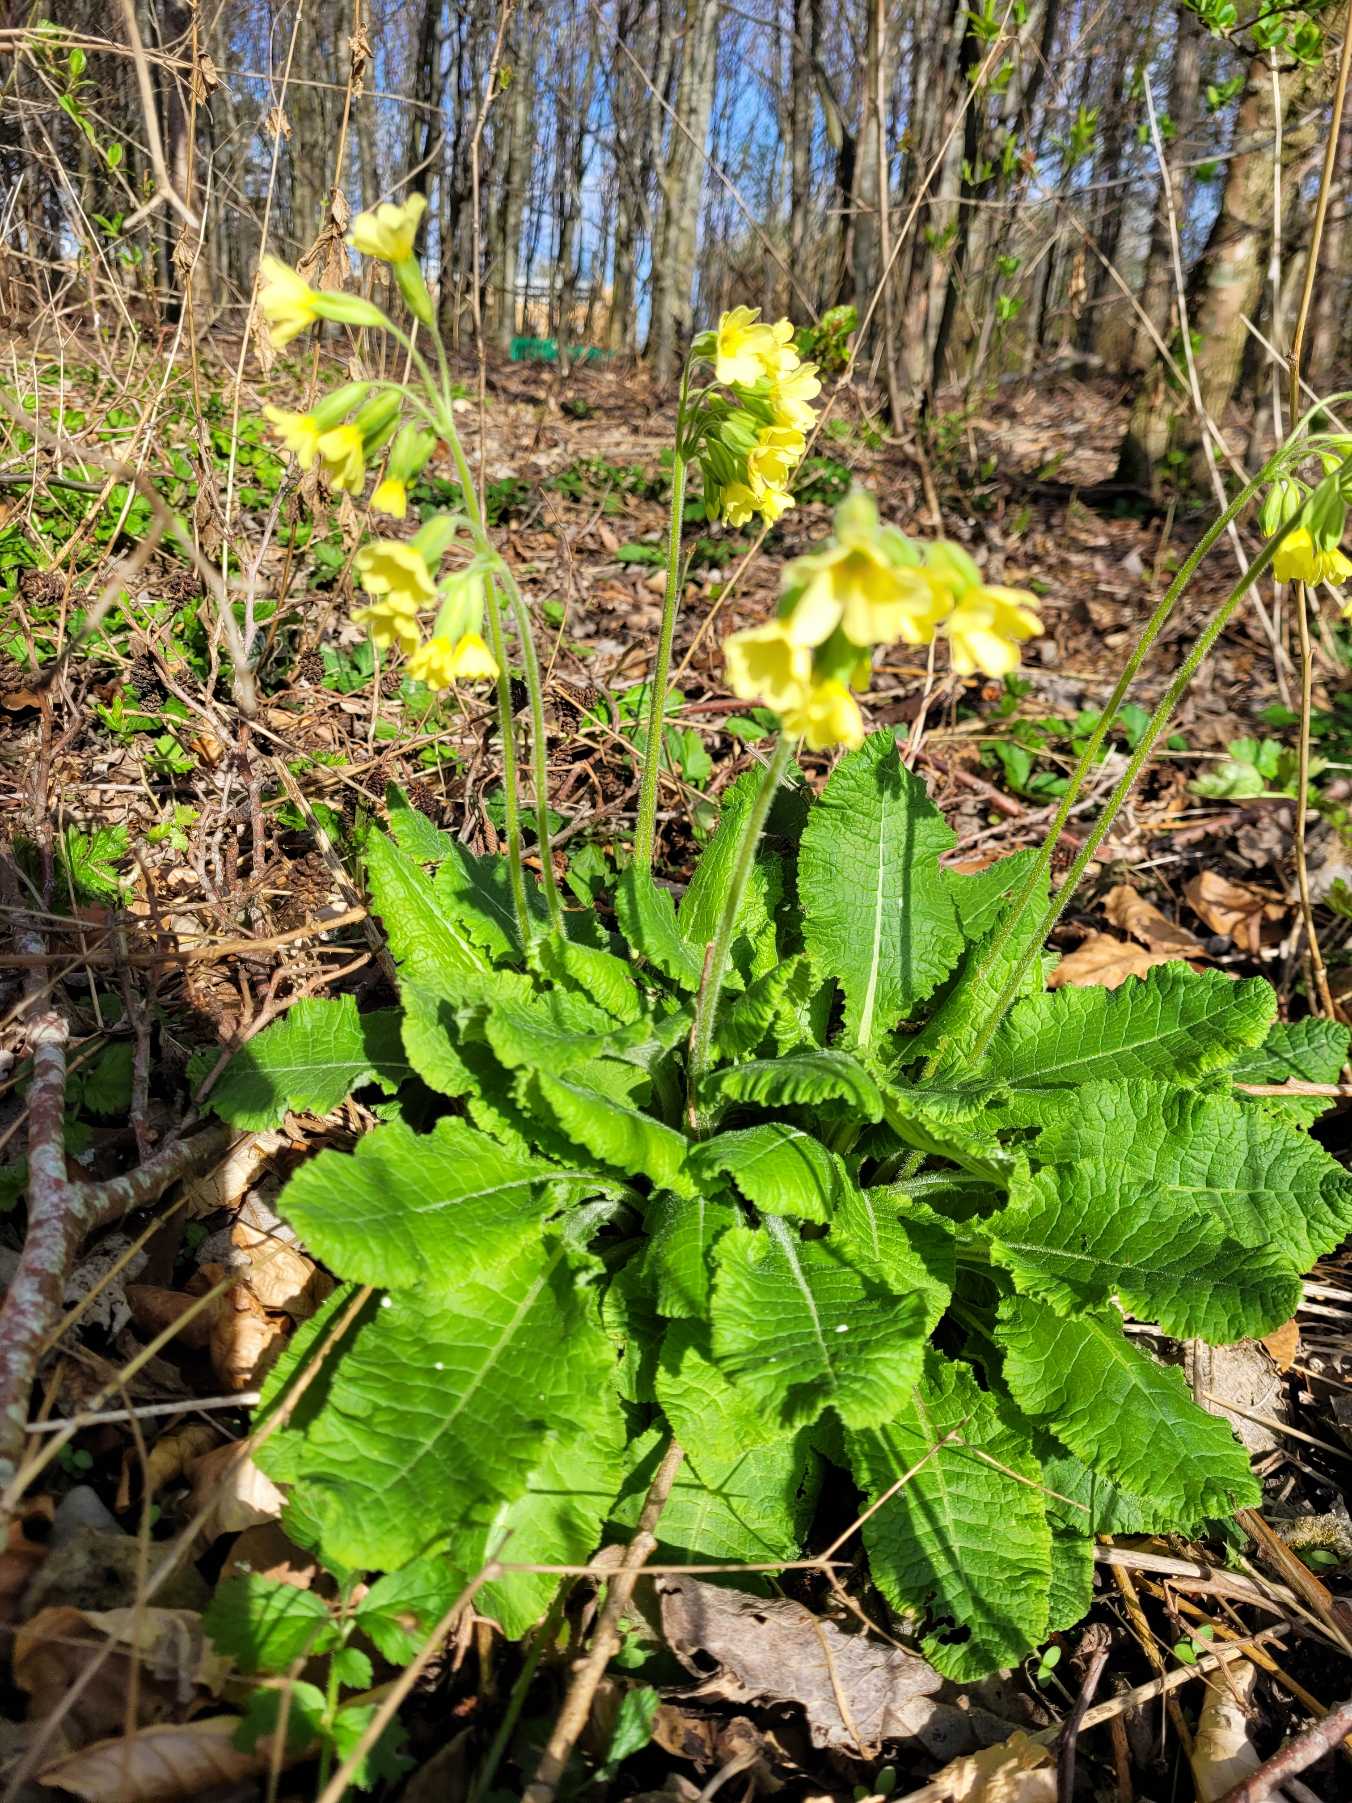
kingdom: Plantae
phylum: Tracheophyta
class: Magnoliopsida
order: Ericales
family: Primulaceae
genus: Primula
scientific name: Primula elatior
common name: Fladkravet kodriver
